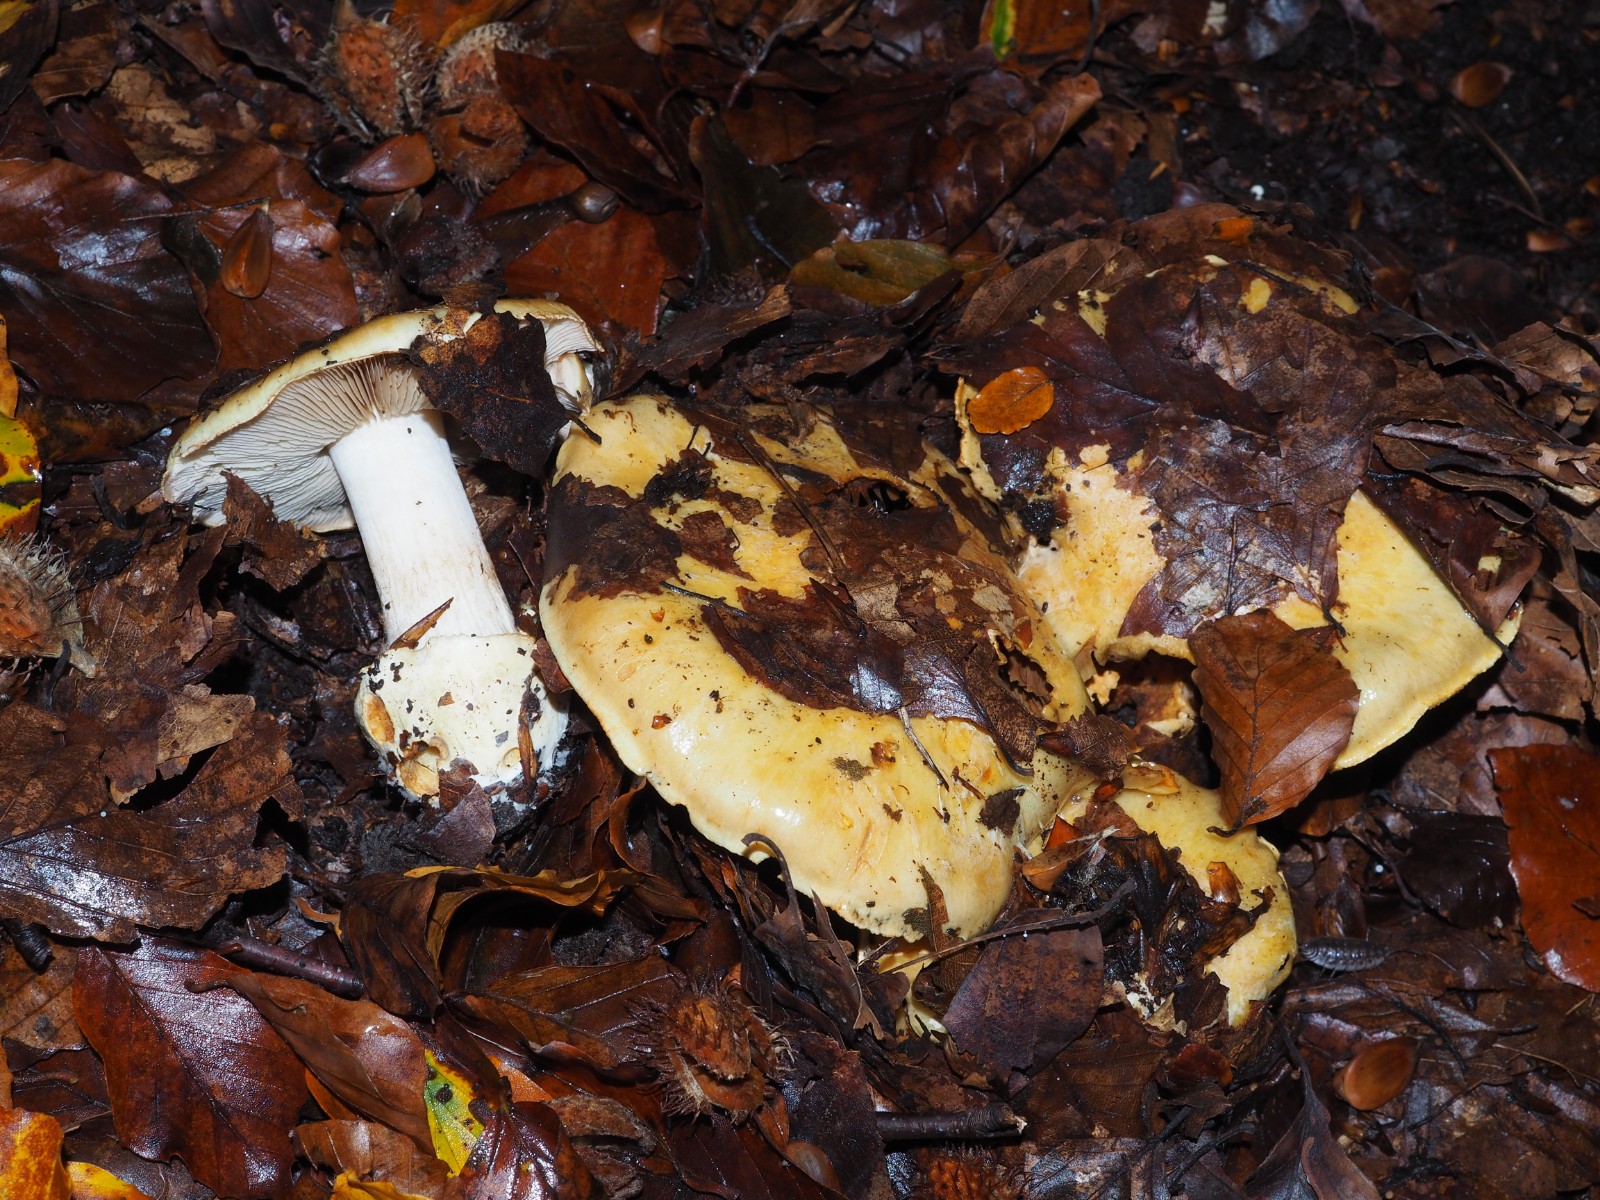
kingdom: Fungi
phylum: Basidiomycota
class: Agaricomycetes
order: Agaricales
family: Cortinariaceae
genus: Cortinarius
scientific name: Cortinarius anserinus
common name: bøge-slørhat
